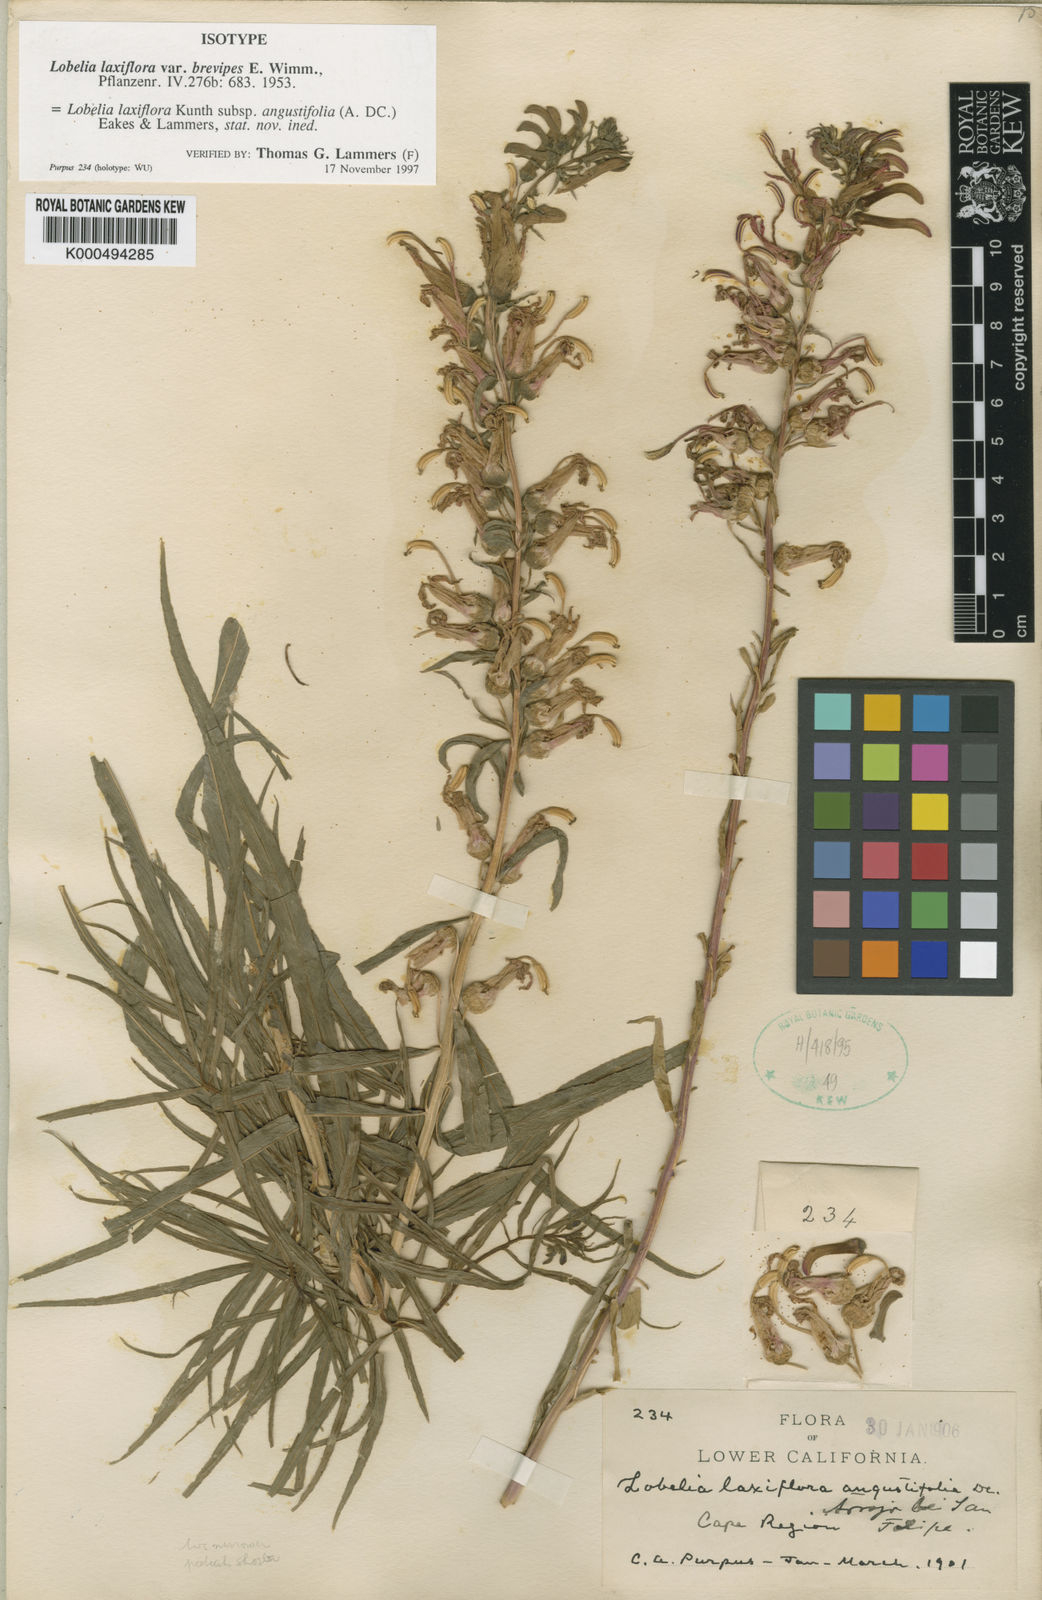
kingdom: Plantae
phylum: Tracheophyta
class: Magnoliopsida
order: Asterales
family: Campanulaceae
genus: Lobelia
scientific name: Lobelia laxiflora
